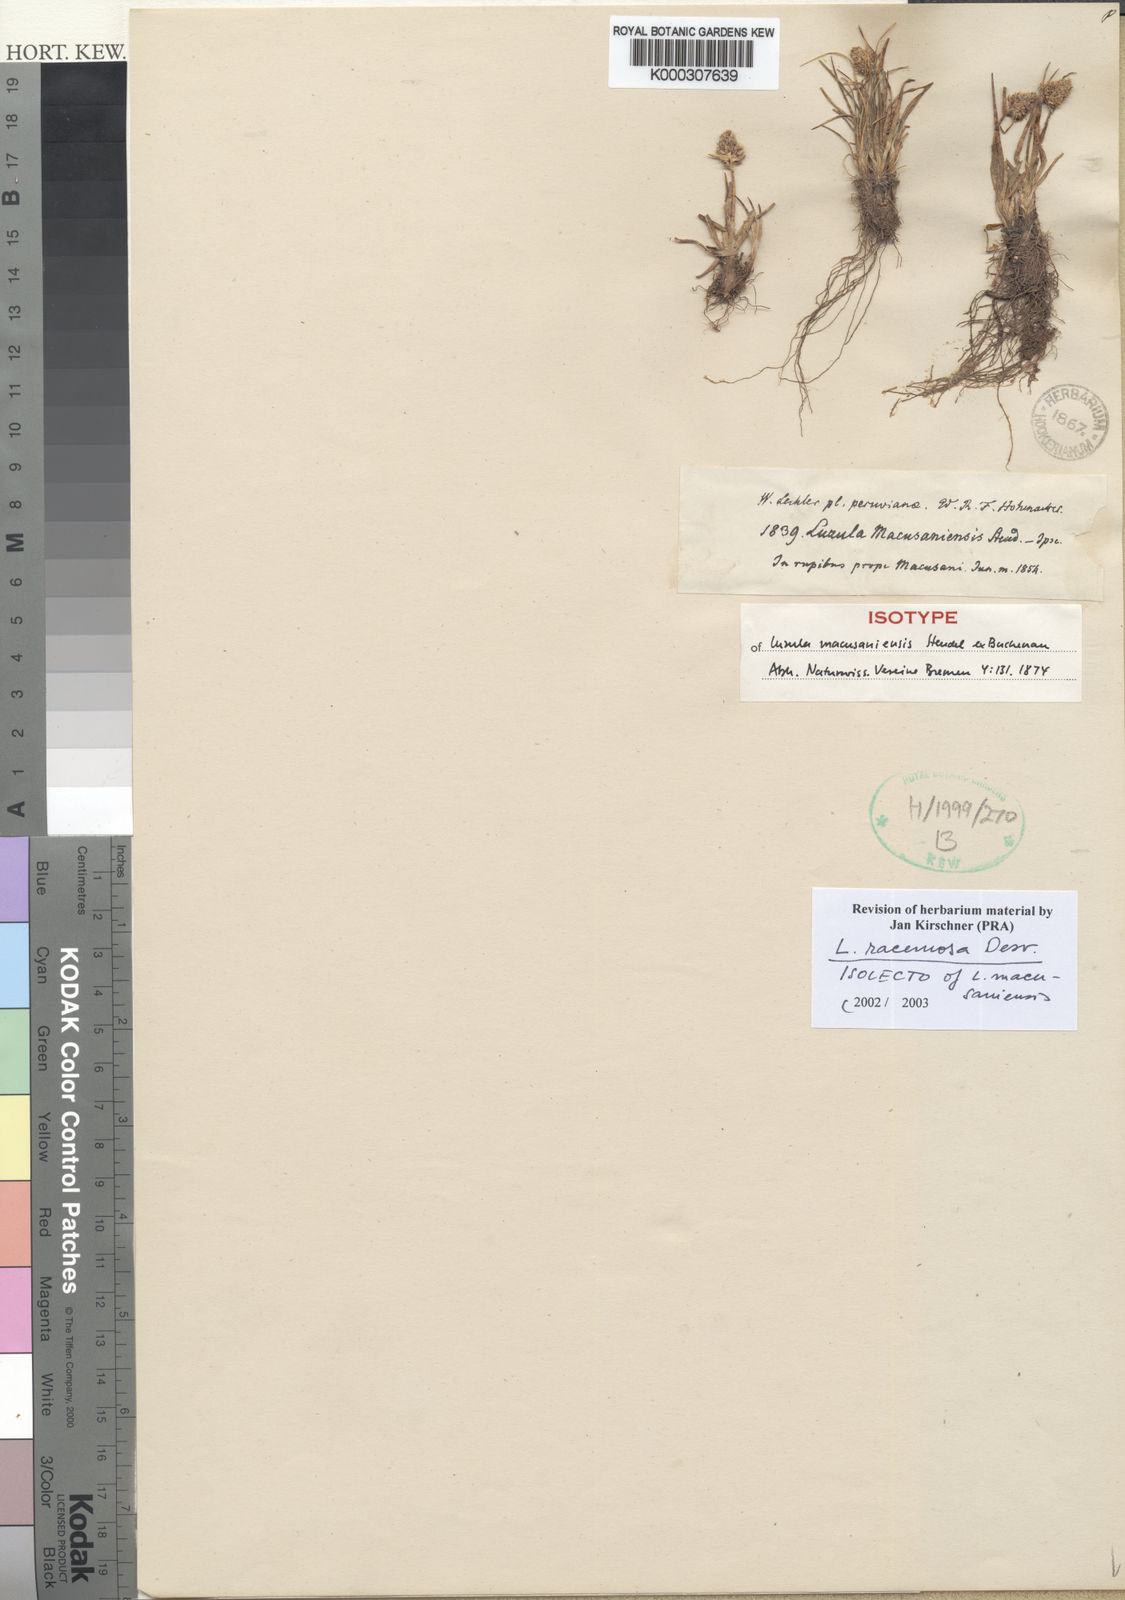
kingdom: Plantae
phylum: Tracheophyta
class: Liliopsida
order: Poales
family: Juncaceae
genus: Luzula
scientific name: Luzula
